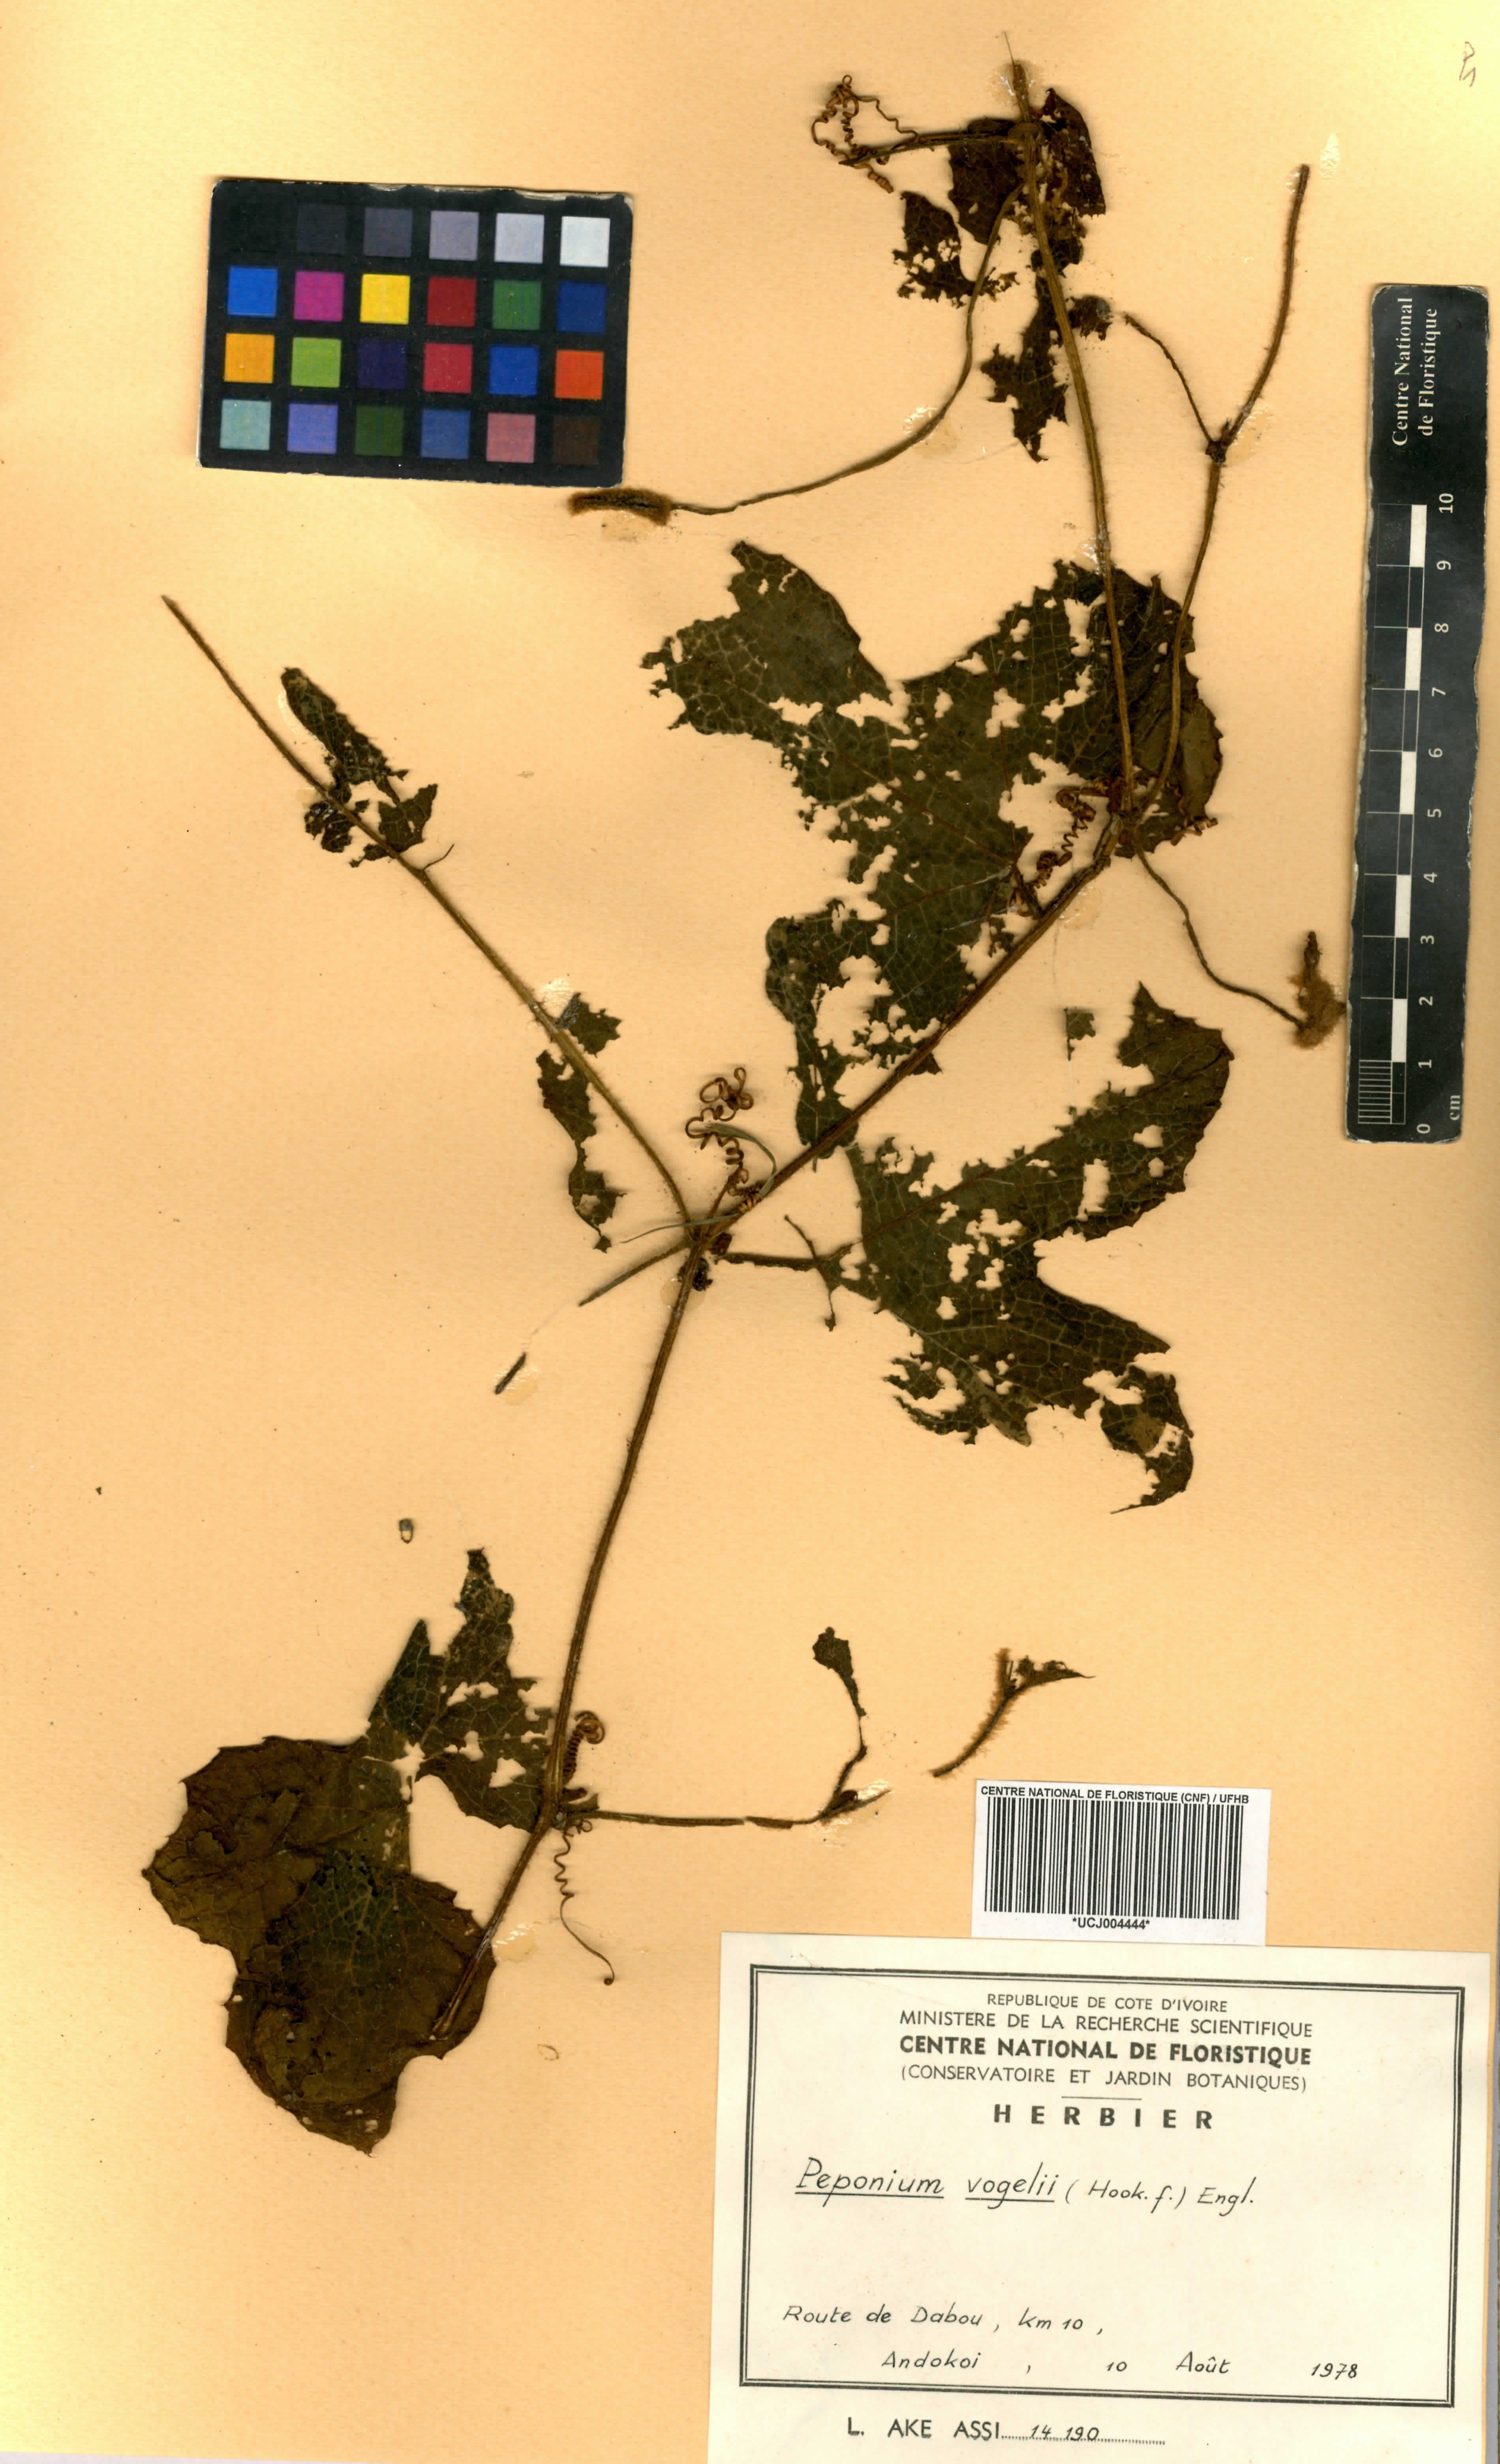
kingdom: Plantae
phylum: Tracheophyta
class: Magnoliopsida
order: Cucurbitales
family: Cucurbitaceae
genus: Peponium
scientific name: Peponium vogelii
